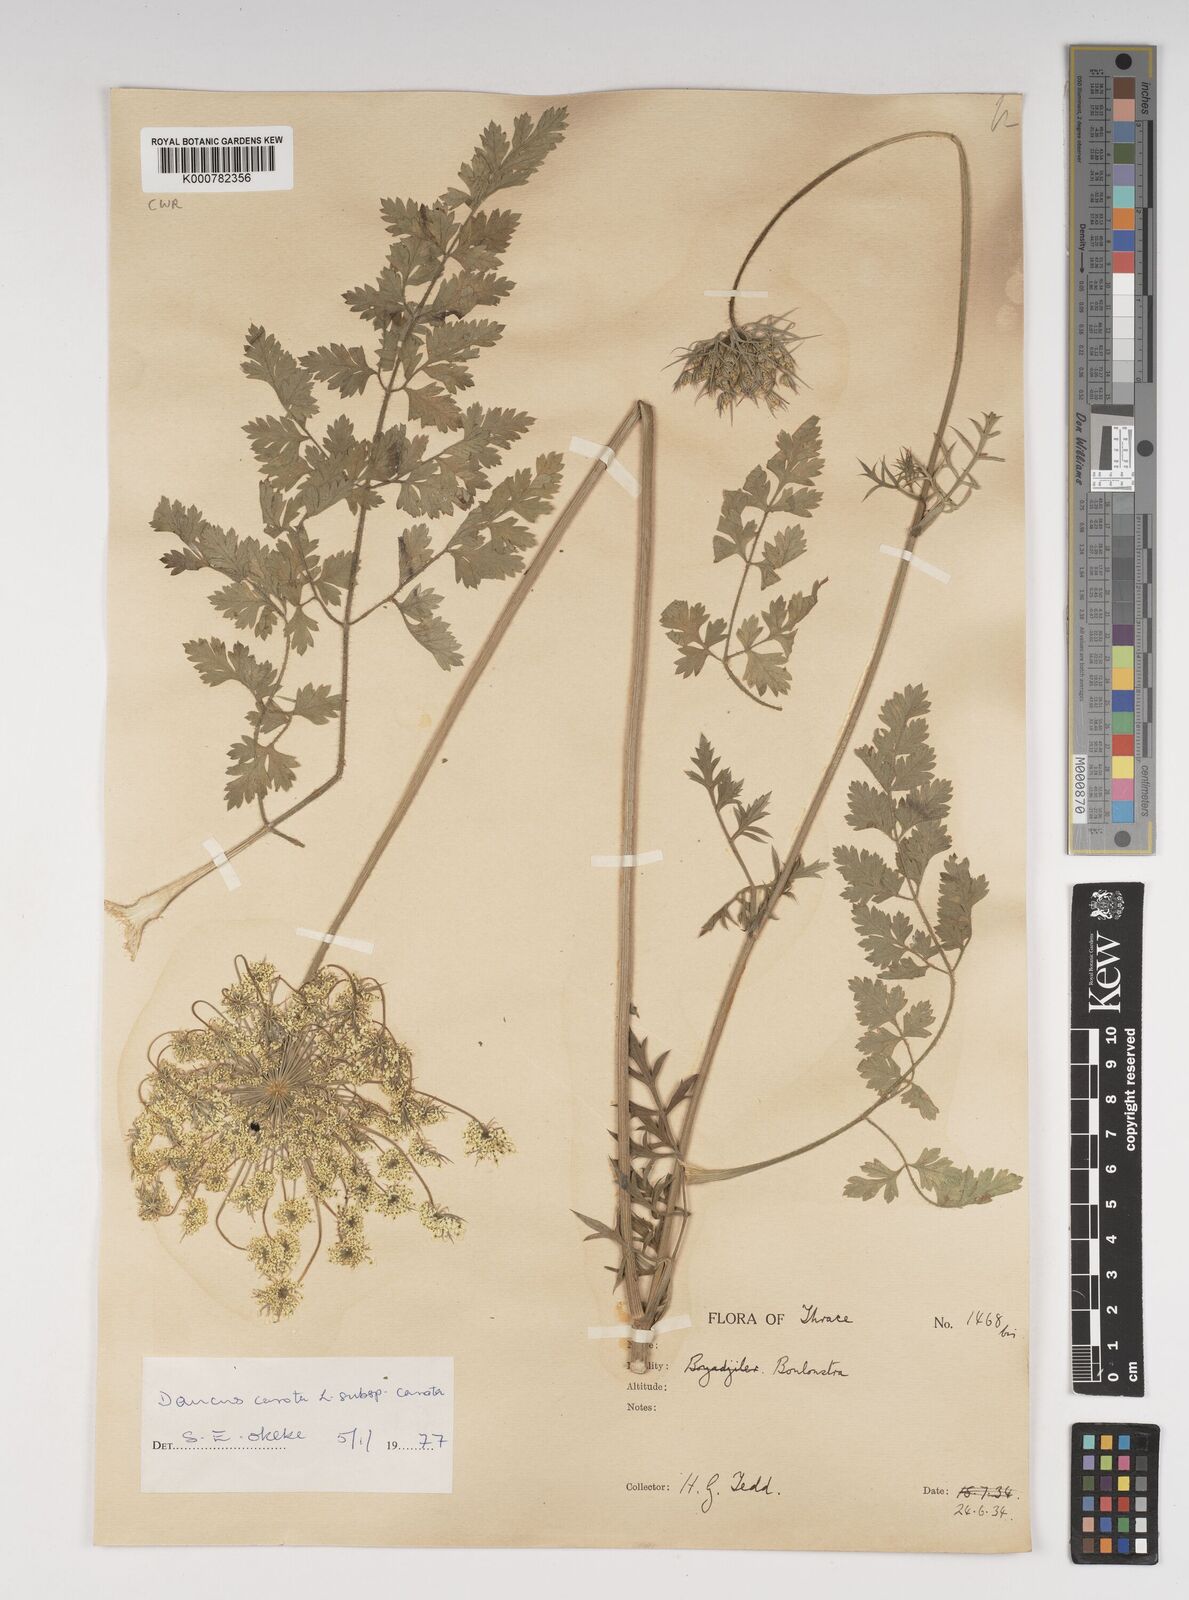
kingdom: Plantae
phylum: Tracheophyta
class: Magnoliopsida
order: Apiales
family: Apiaceae
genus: Daucus
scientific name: Daucus carota
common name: Wild carrot
